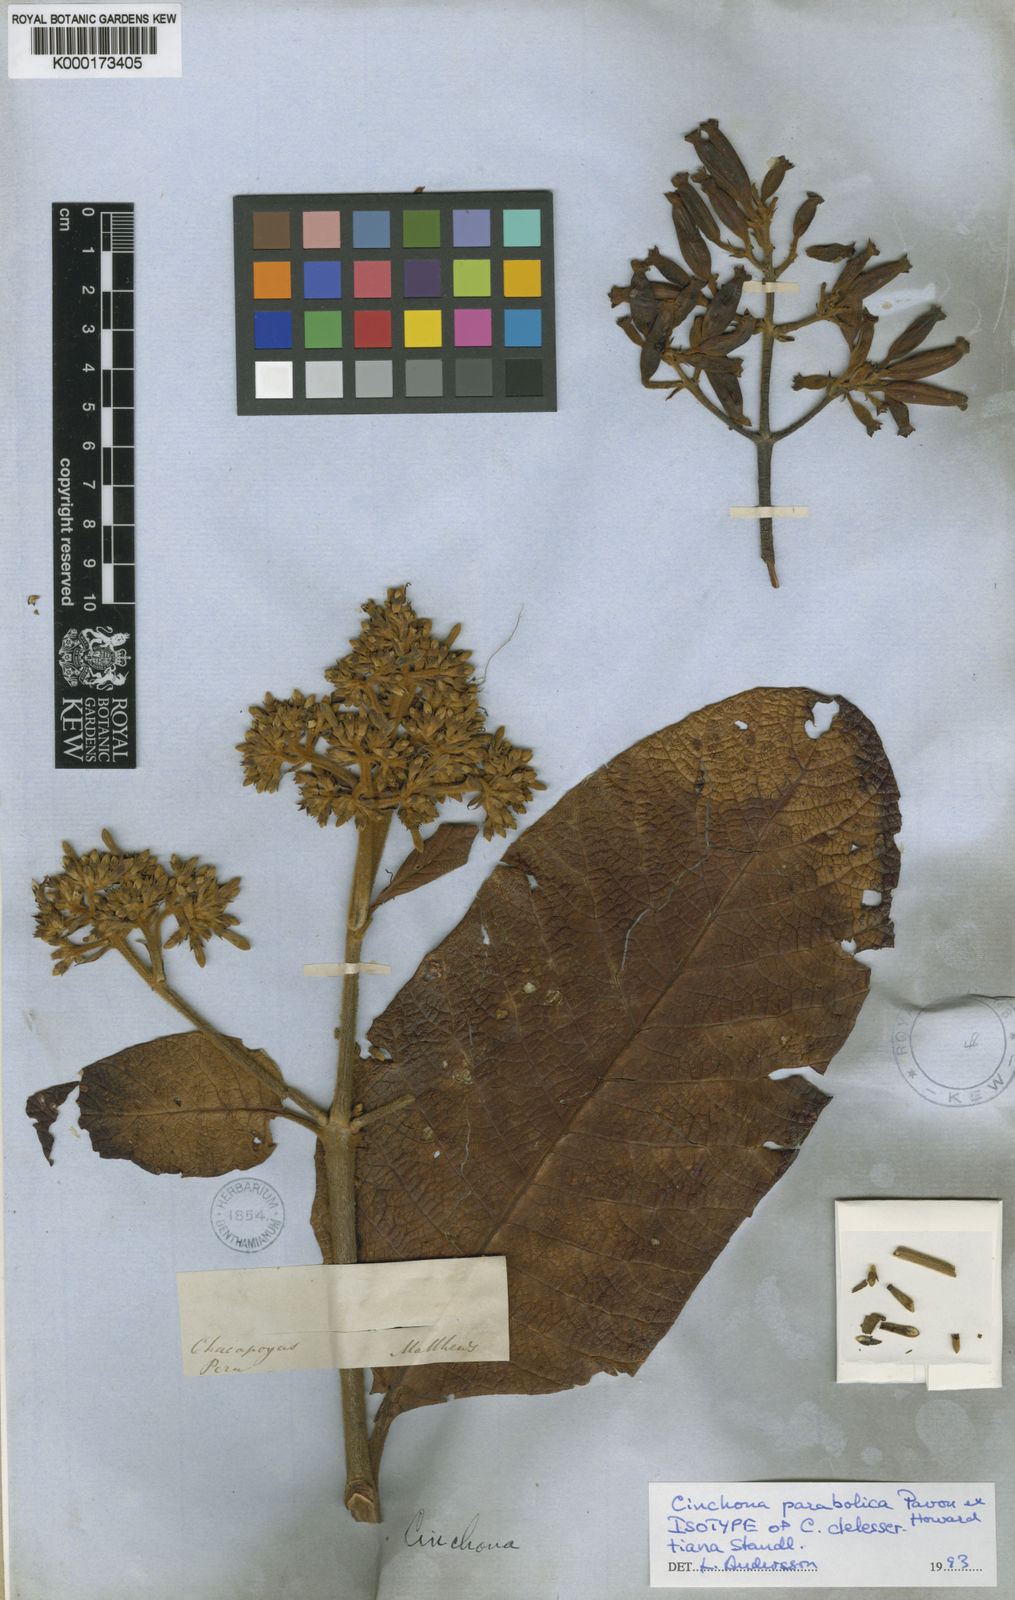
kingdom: Plantae
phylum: Tracheophyta
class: Magnoliopsida
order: Gentianales
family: Rubiaceae
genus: Cinchona
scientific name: Cinchona parabolica
